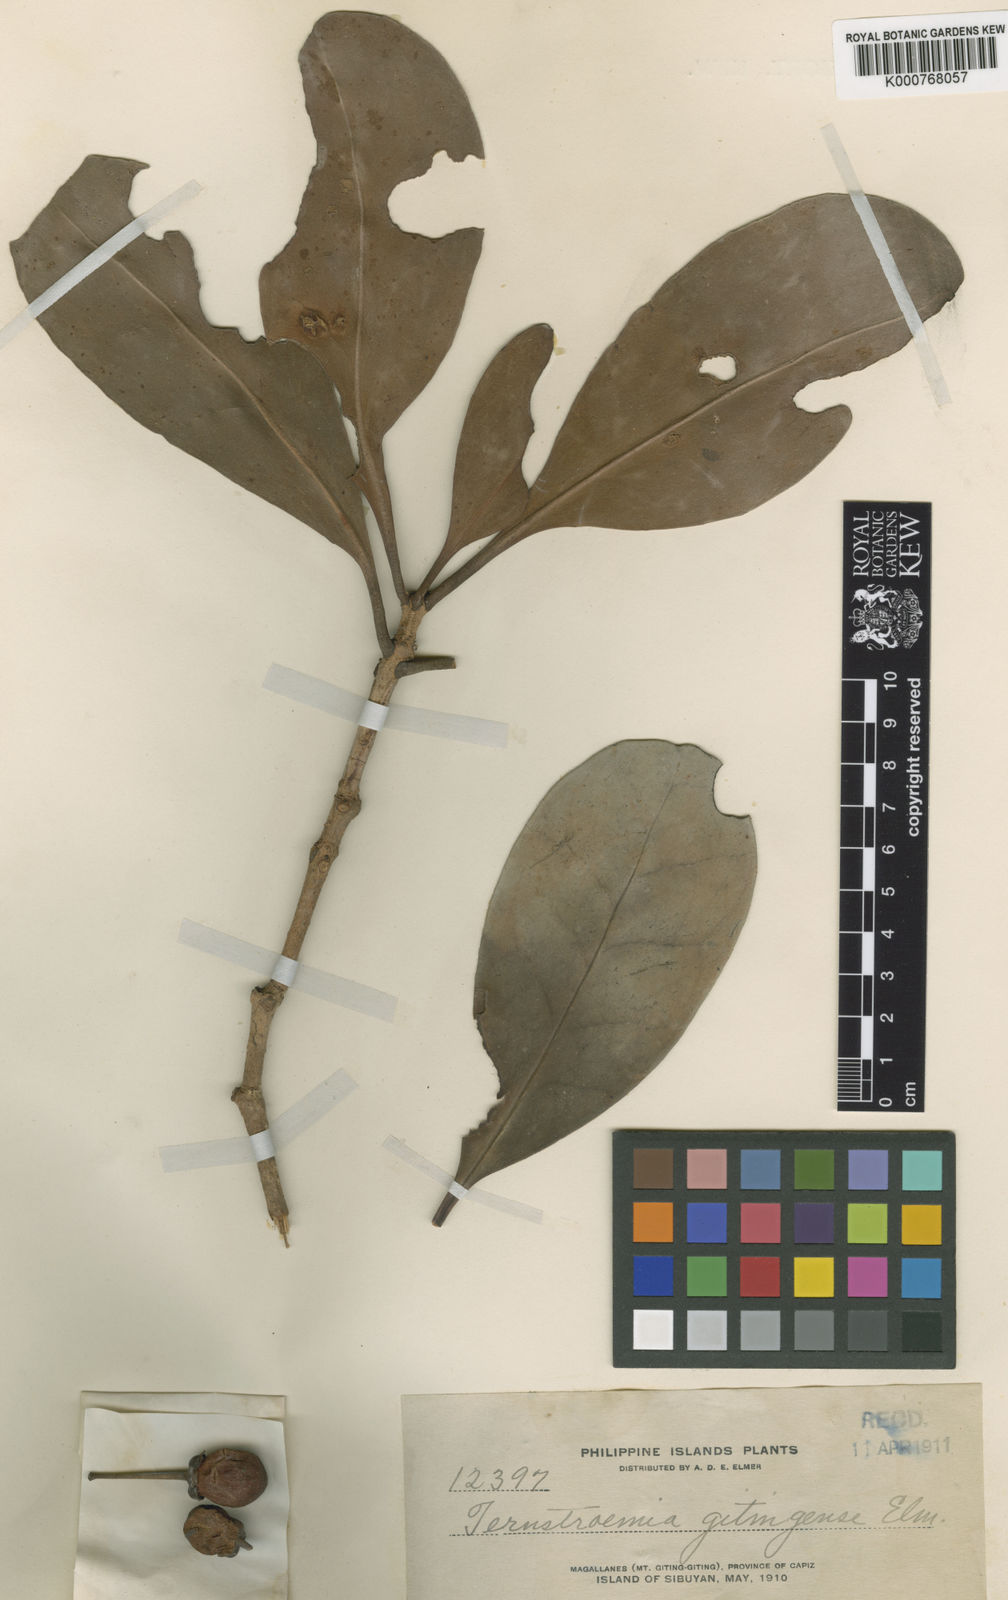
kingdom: Plantae
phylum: Tracheophyta
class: Magnoliopsida
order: Ericales
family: Pentaphylacaceae
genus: Ternstroemia
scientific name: Ternstroemia gitingensis
